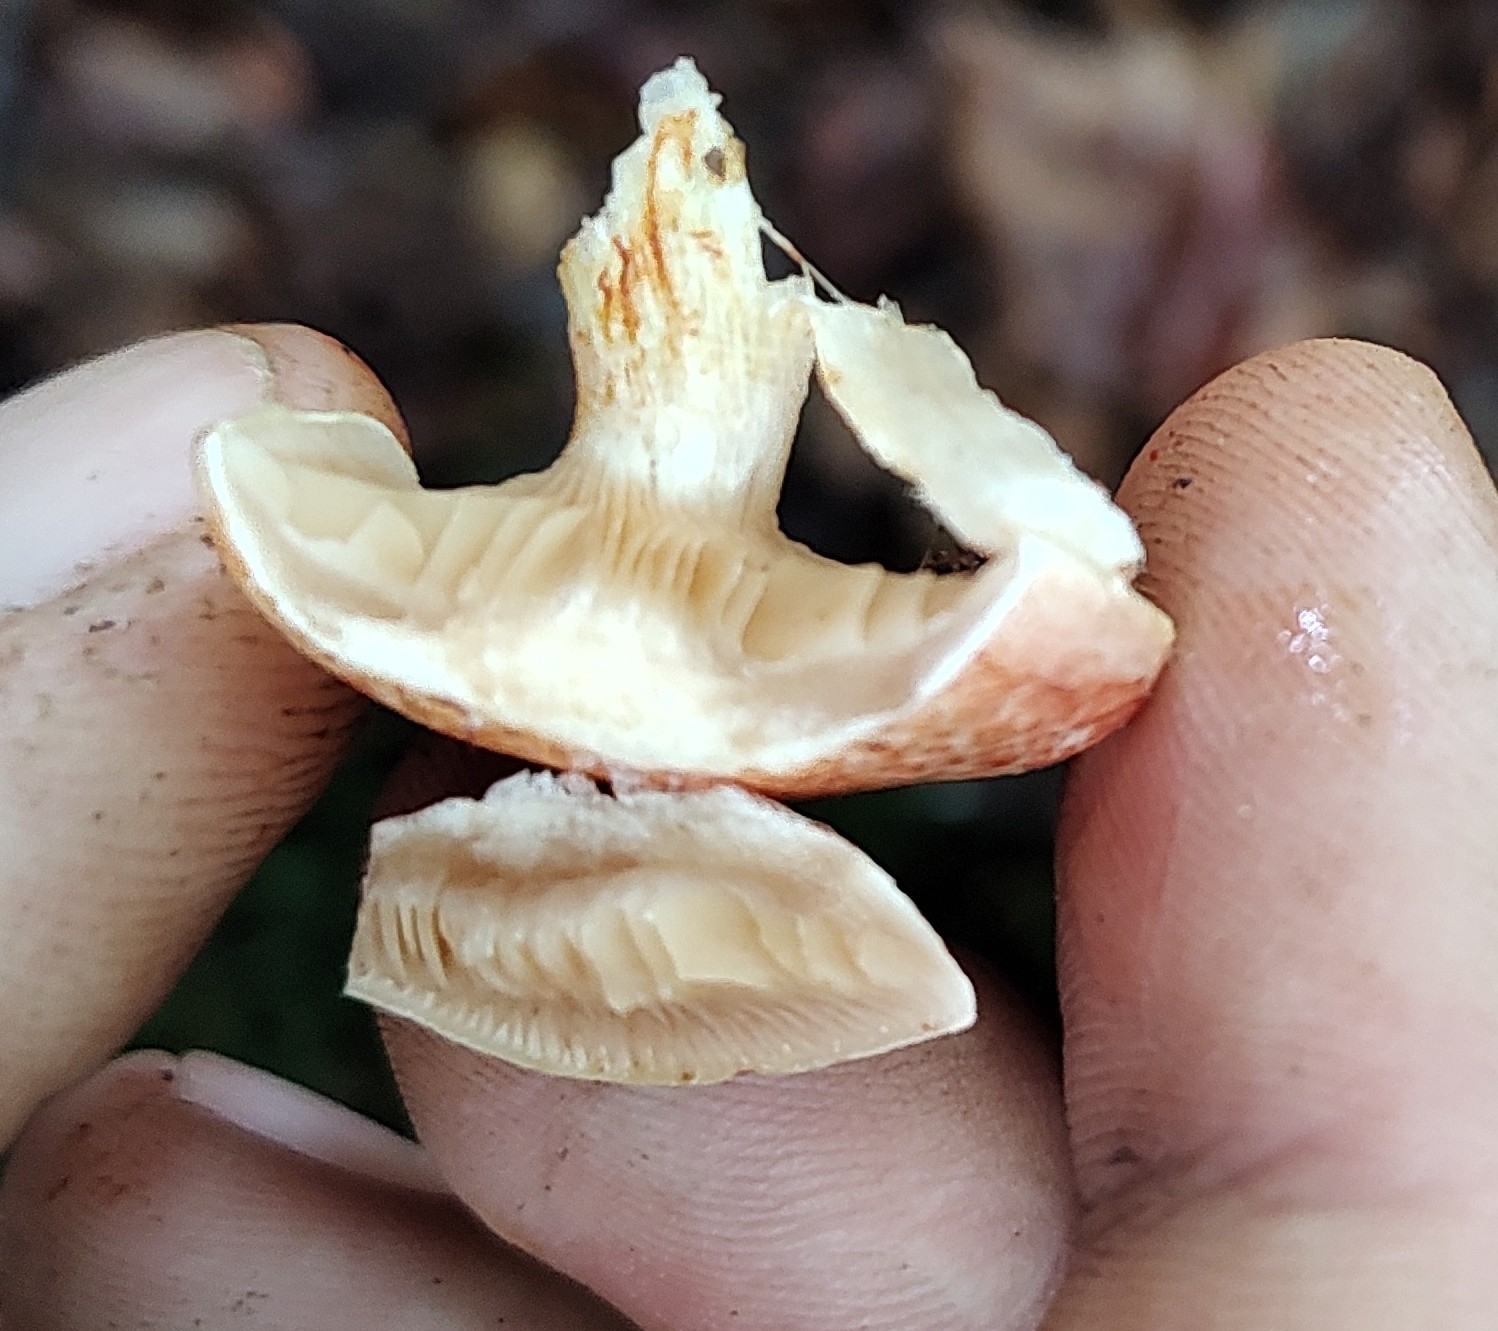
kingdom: Fungi
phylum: Basidiomycota
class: Agaricomycetes
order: Agaricales
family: Cortinariaceae
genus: Cortinarius
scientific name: Cortinarius bolaris
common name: cinnoberskællet slørhat
